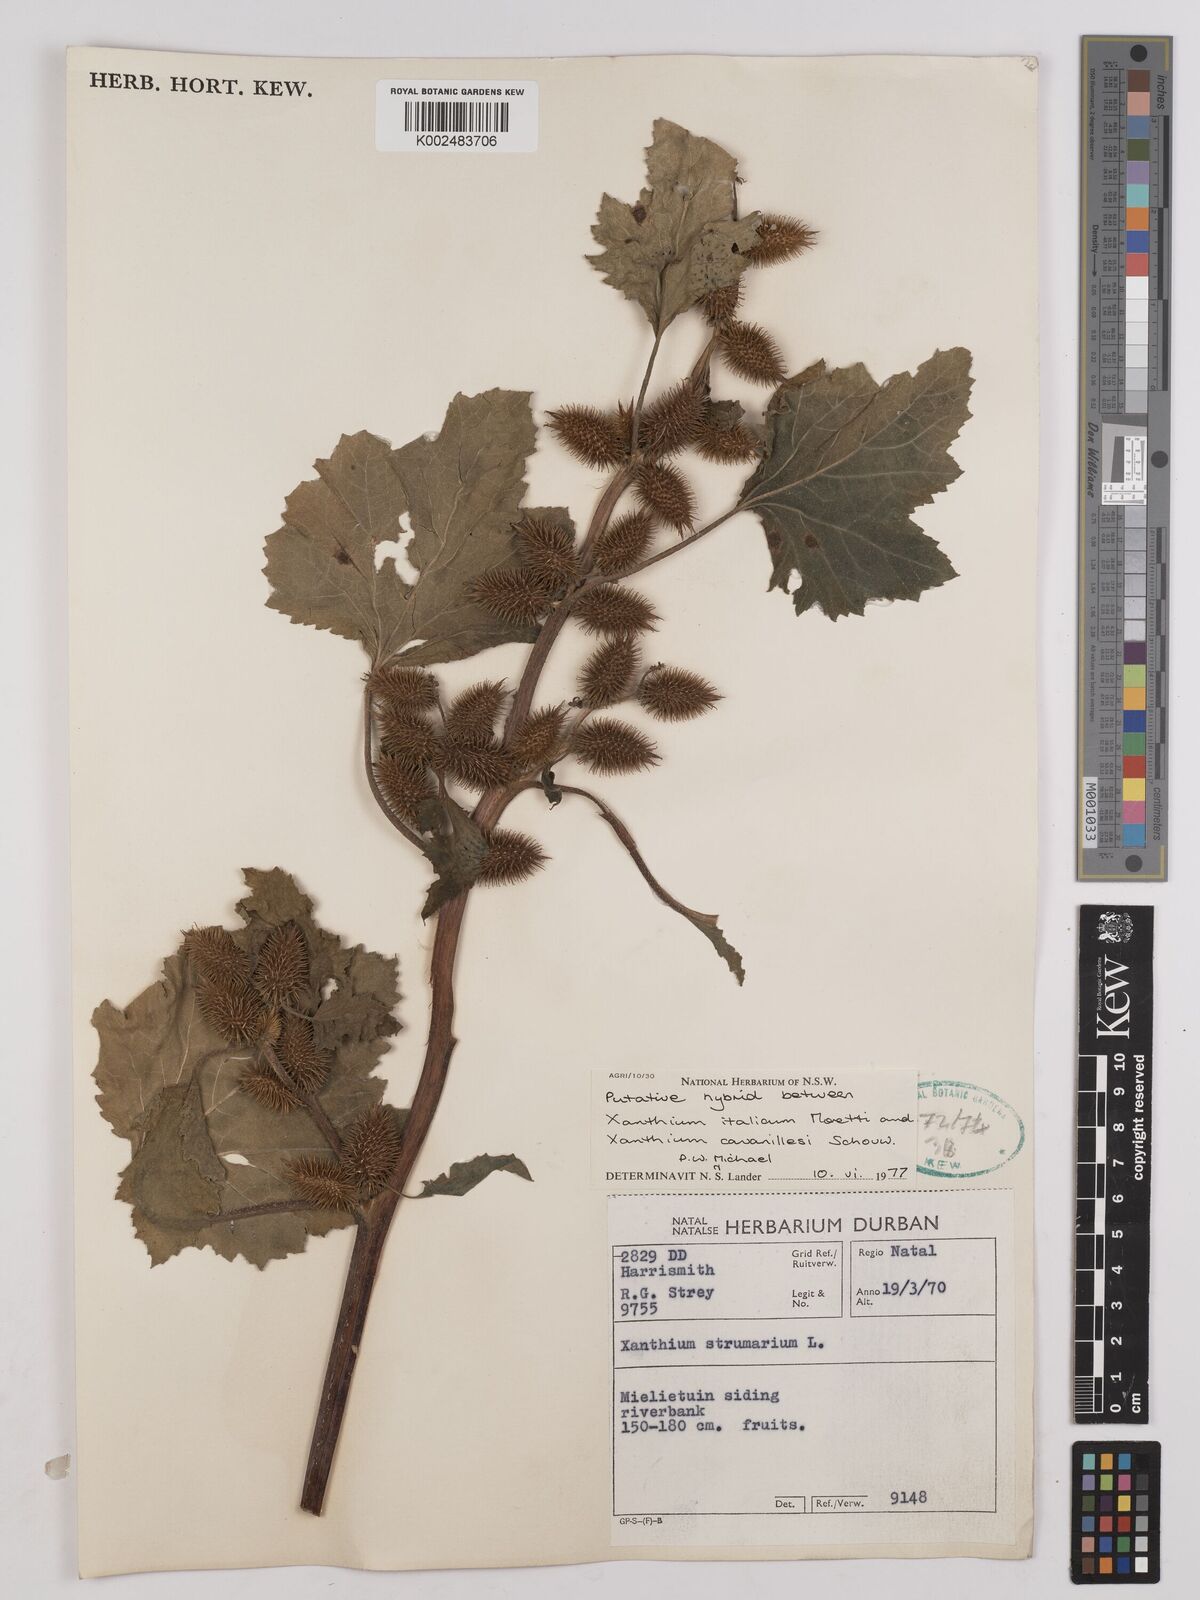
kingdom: Plantae
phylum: Tracheophyta
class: Magnoliopsida
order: Asterales
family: Asteraceae
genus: Xanthium
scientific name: Xanthium
